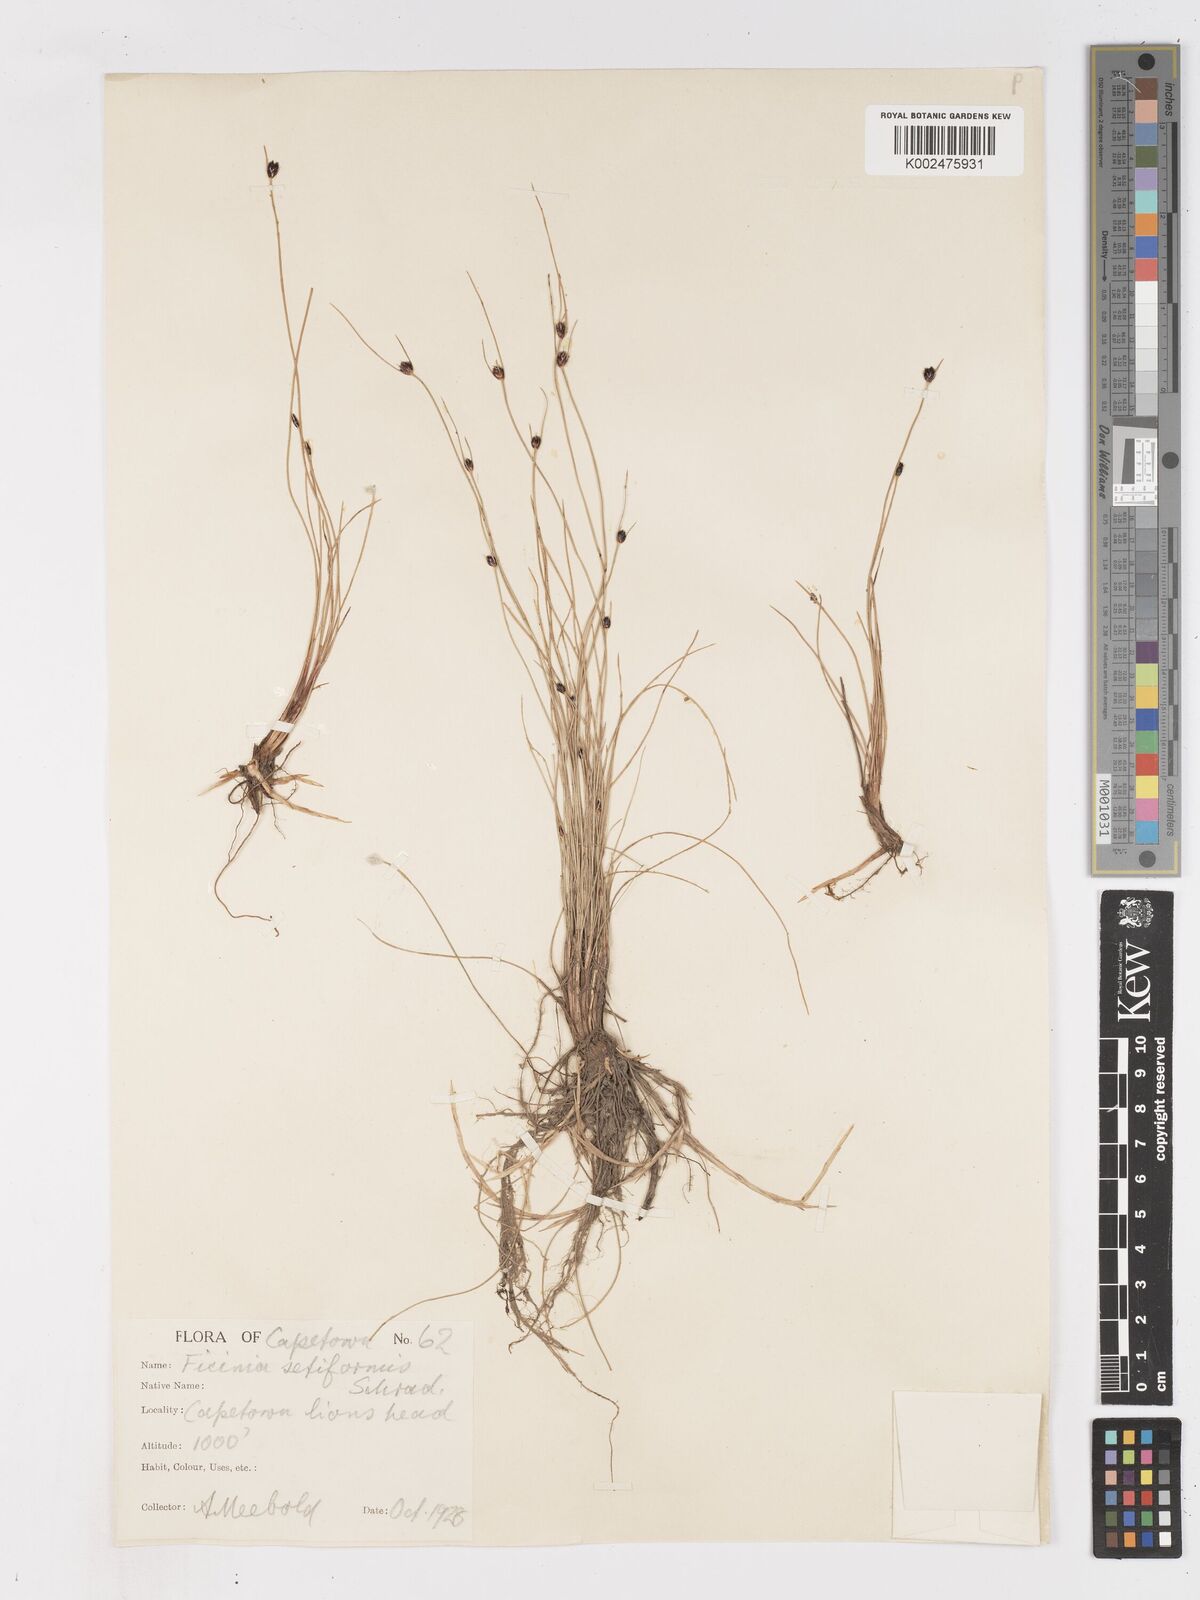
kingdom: Plantae
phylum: Tracheophyta
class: Liliopsida
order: Poales
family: Cyperaceae
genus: Ficinia
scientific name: Ficinia dunensis
